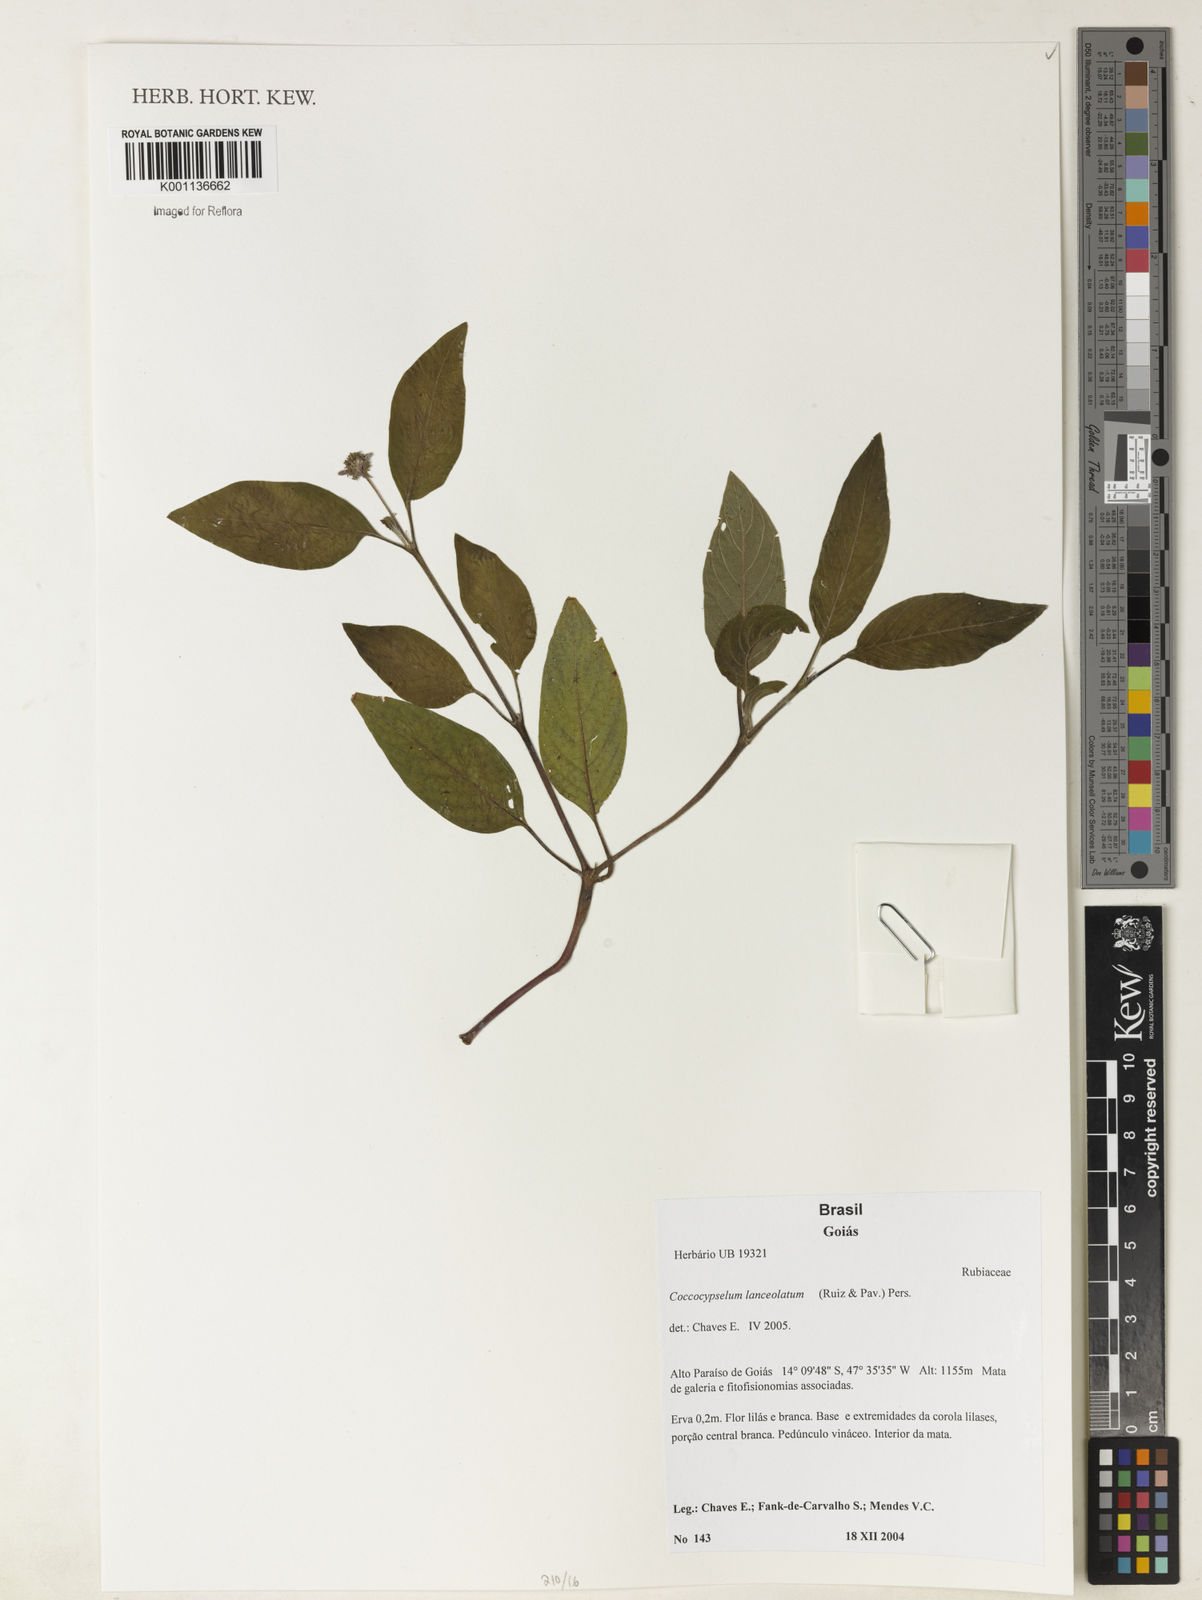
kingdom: Plantae
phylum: Tracheophyta
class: Magnoliopsida
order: Gentianales
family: Rubiaceae
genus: Coccocypselum
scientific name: Coccocypselum lanceolatum
